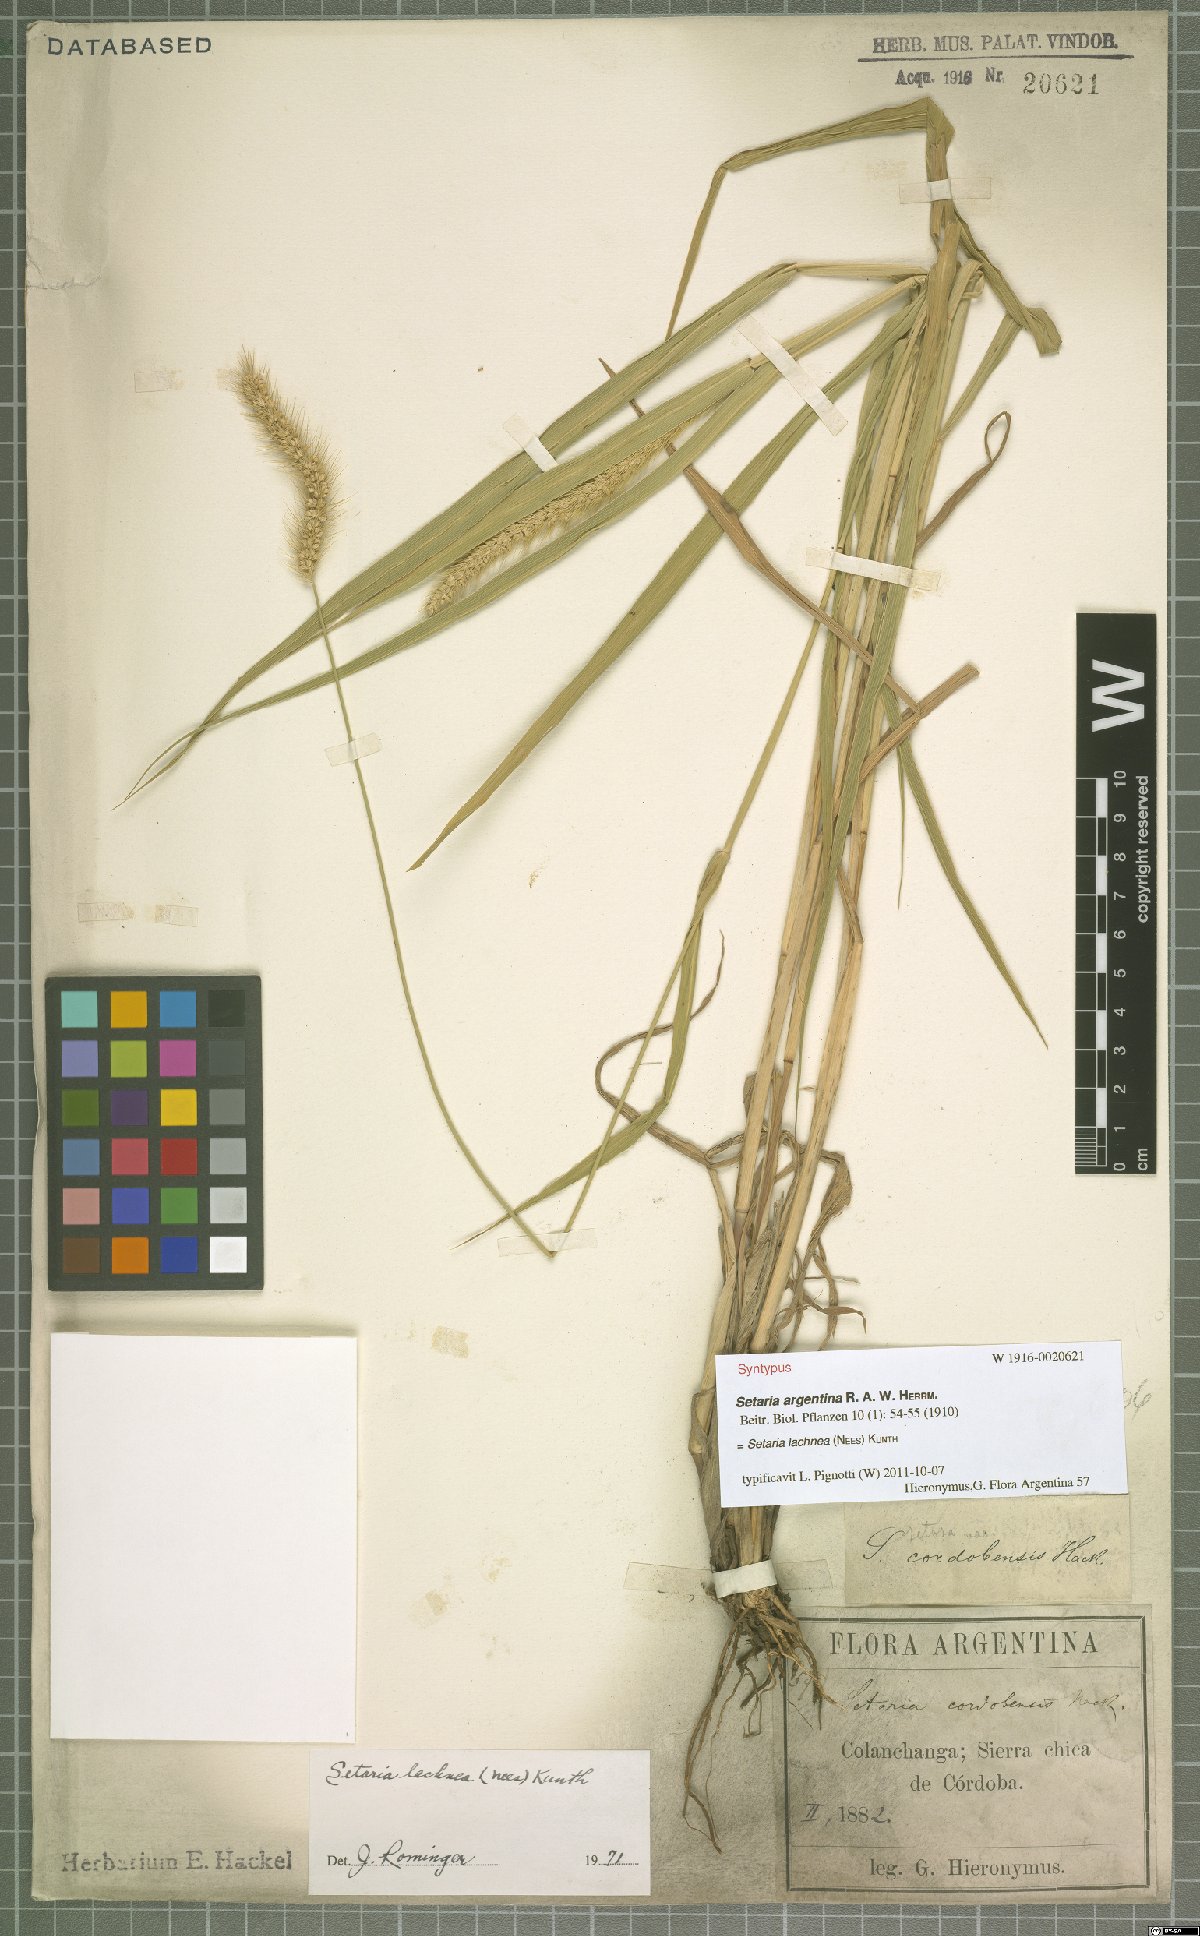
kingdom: Plantae
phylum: Tracheophyta
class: Liliopsida
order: Poales
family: Poaceae
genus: Setaria
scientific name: Setaria lachnea
